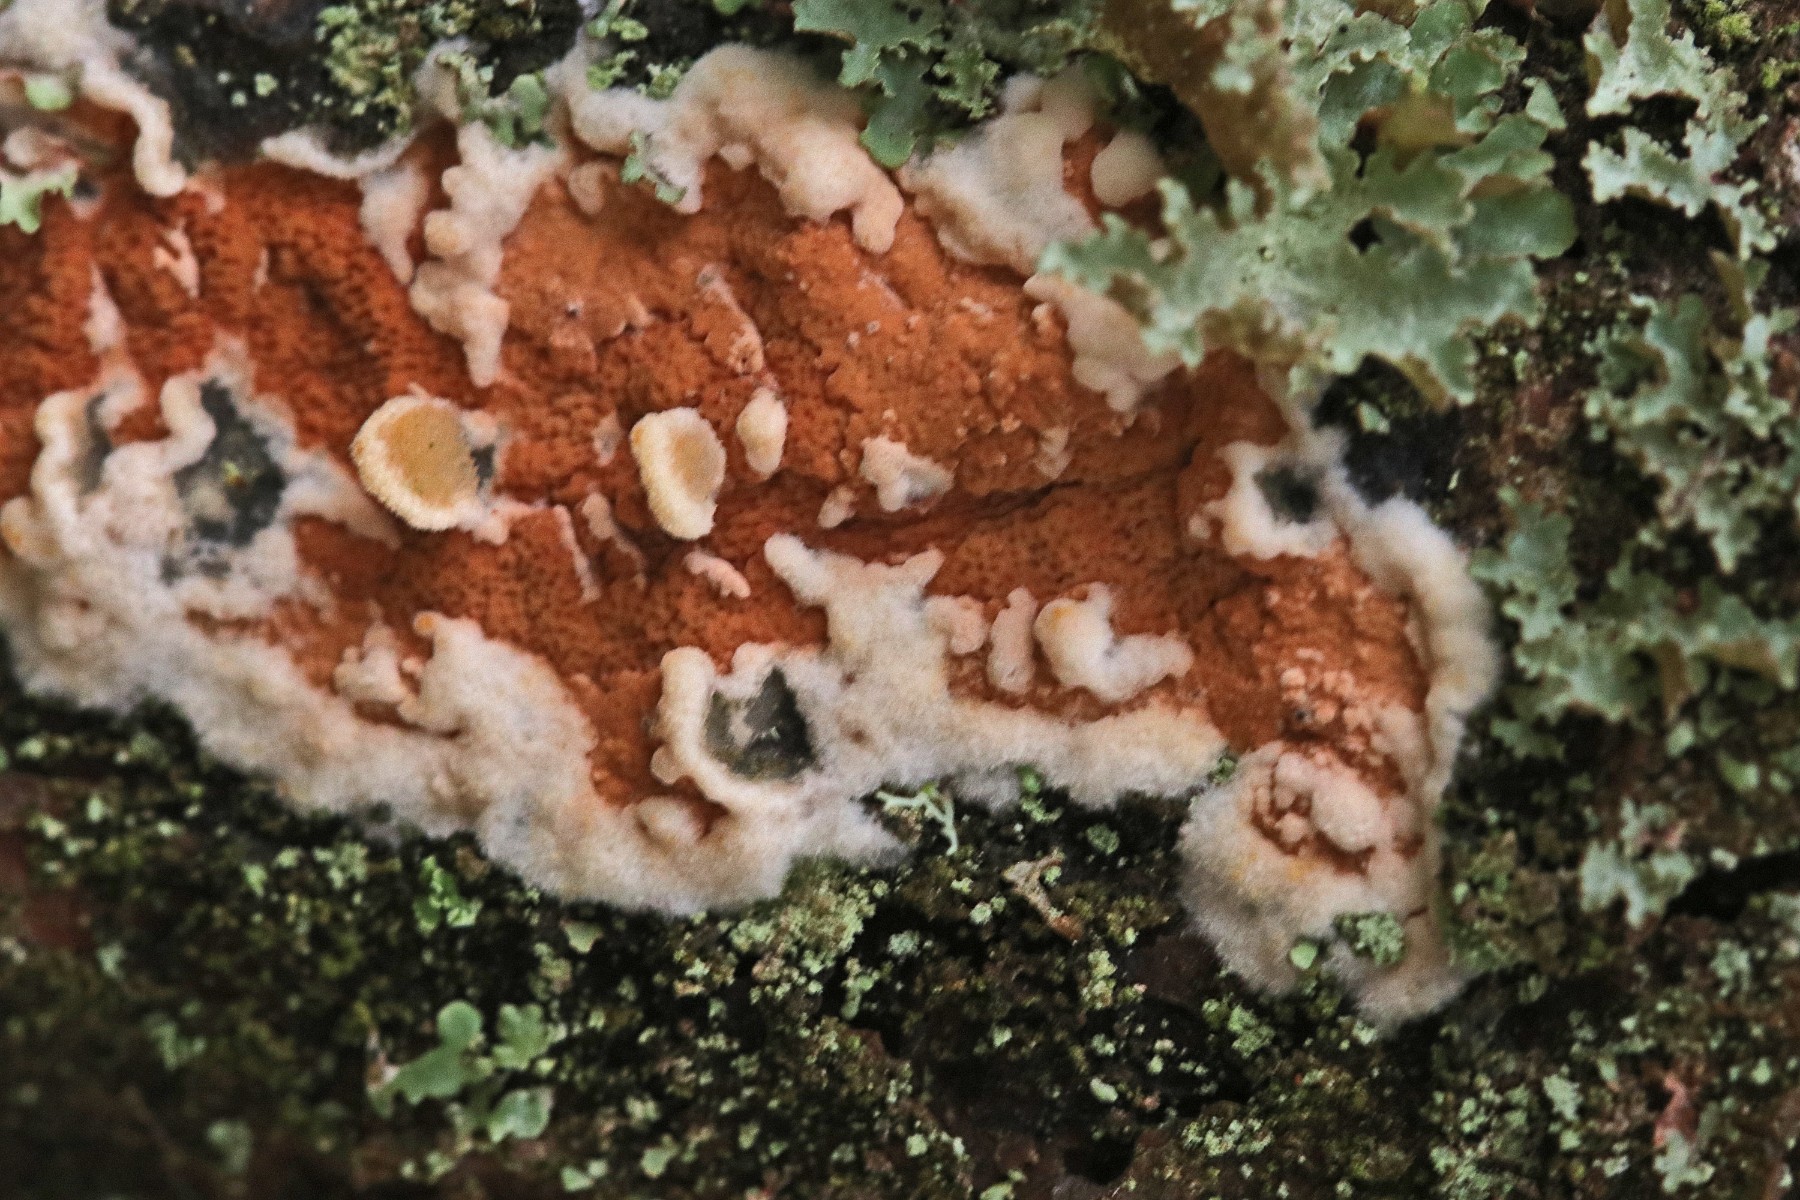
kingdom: Fungi
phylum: Basidiomycota
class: Agaricomycetes
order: Polyporales
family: Irpicaceae
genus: Meruliopsis
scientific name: Meruliopsis taxicola
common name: purpurbrun foldporesvamp
